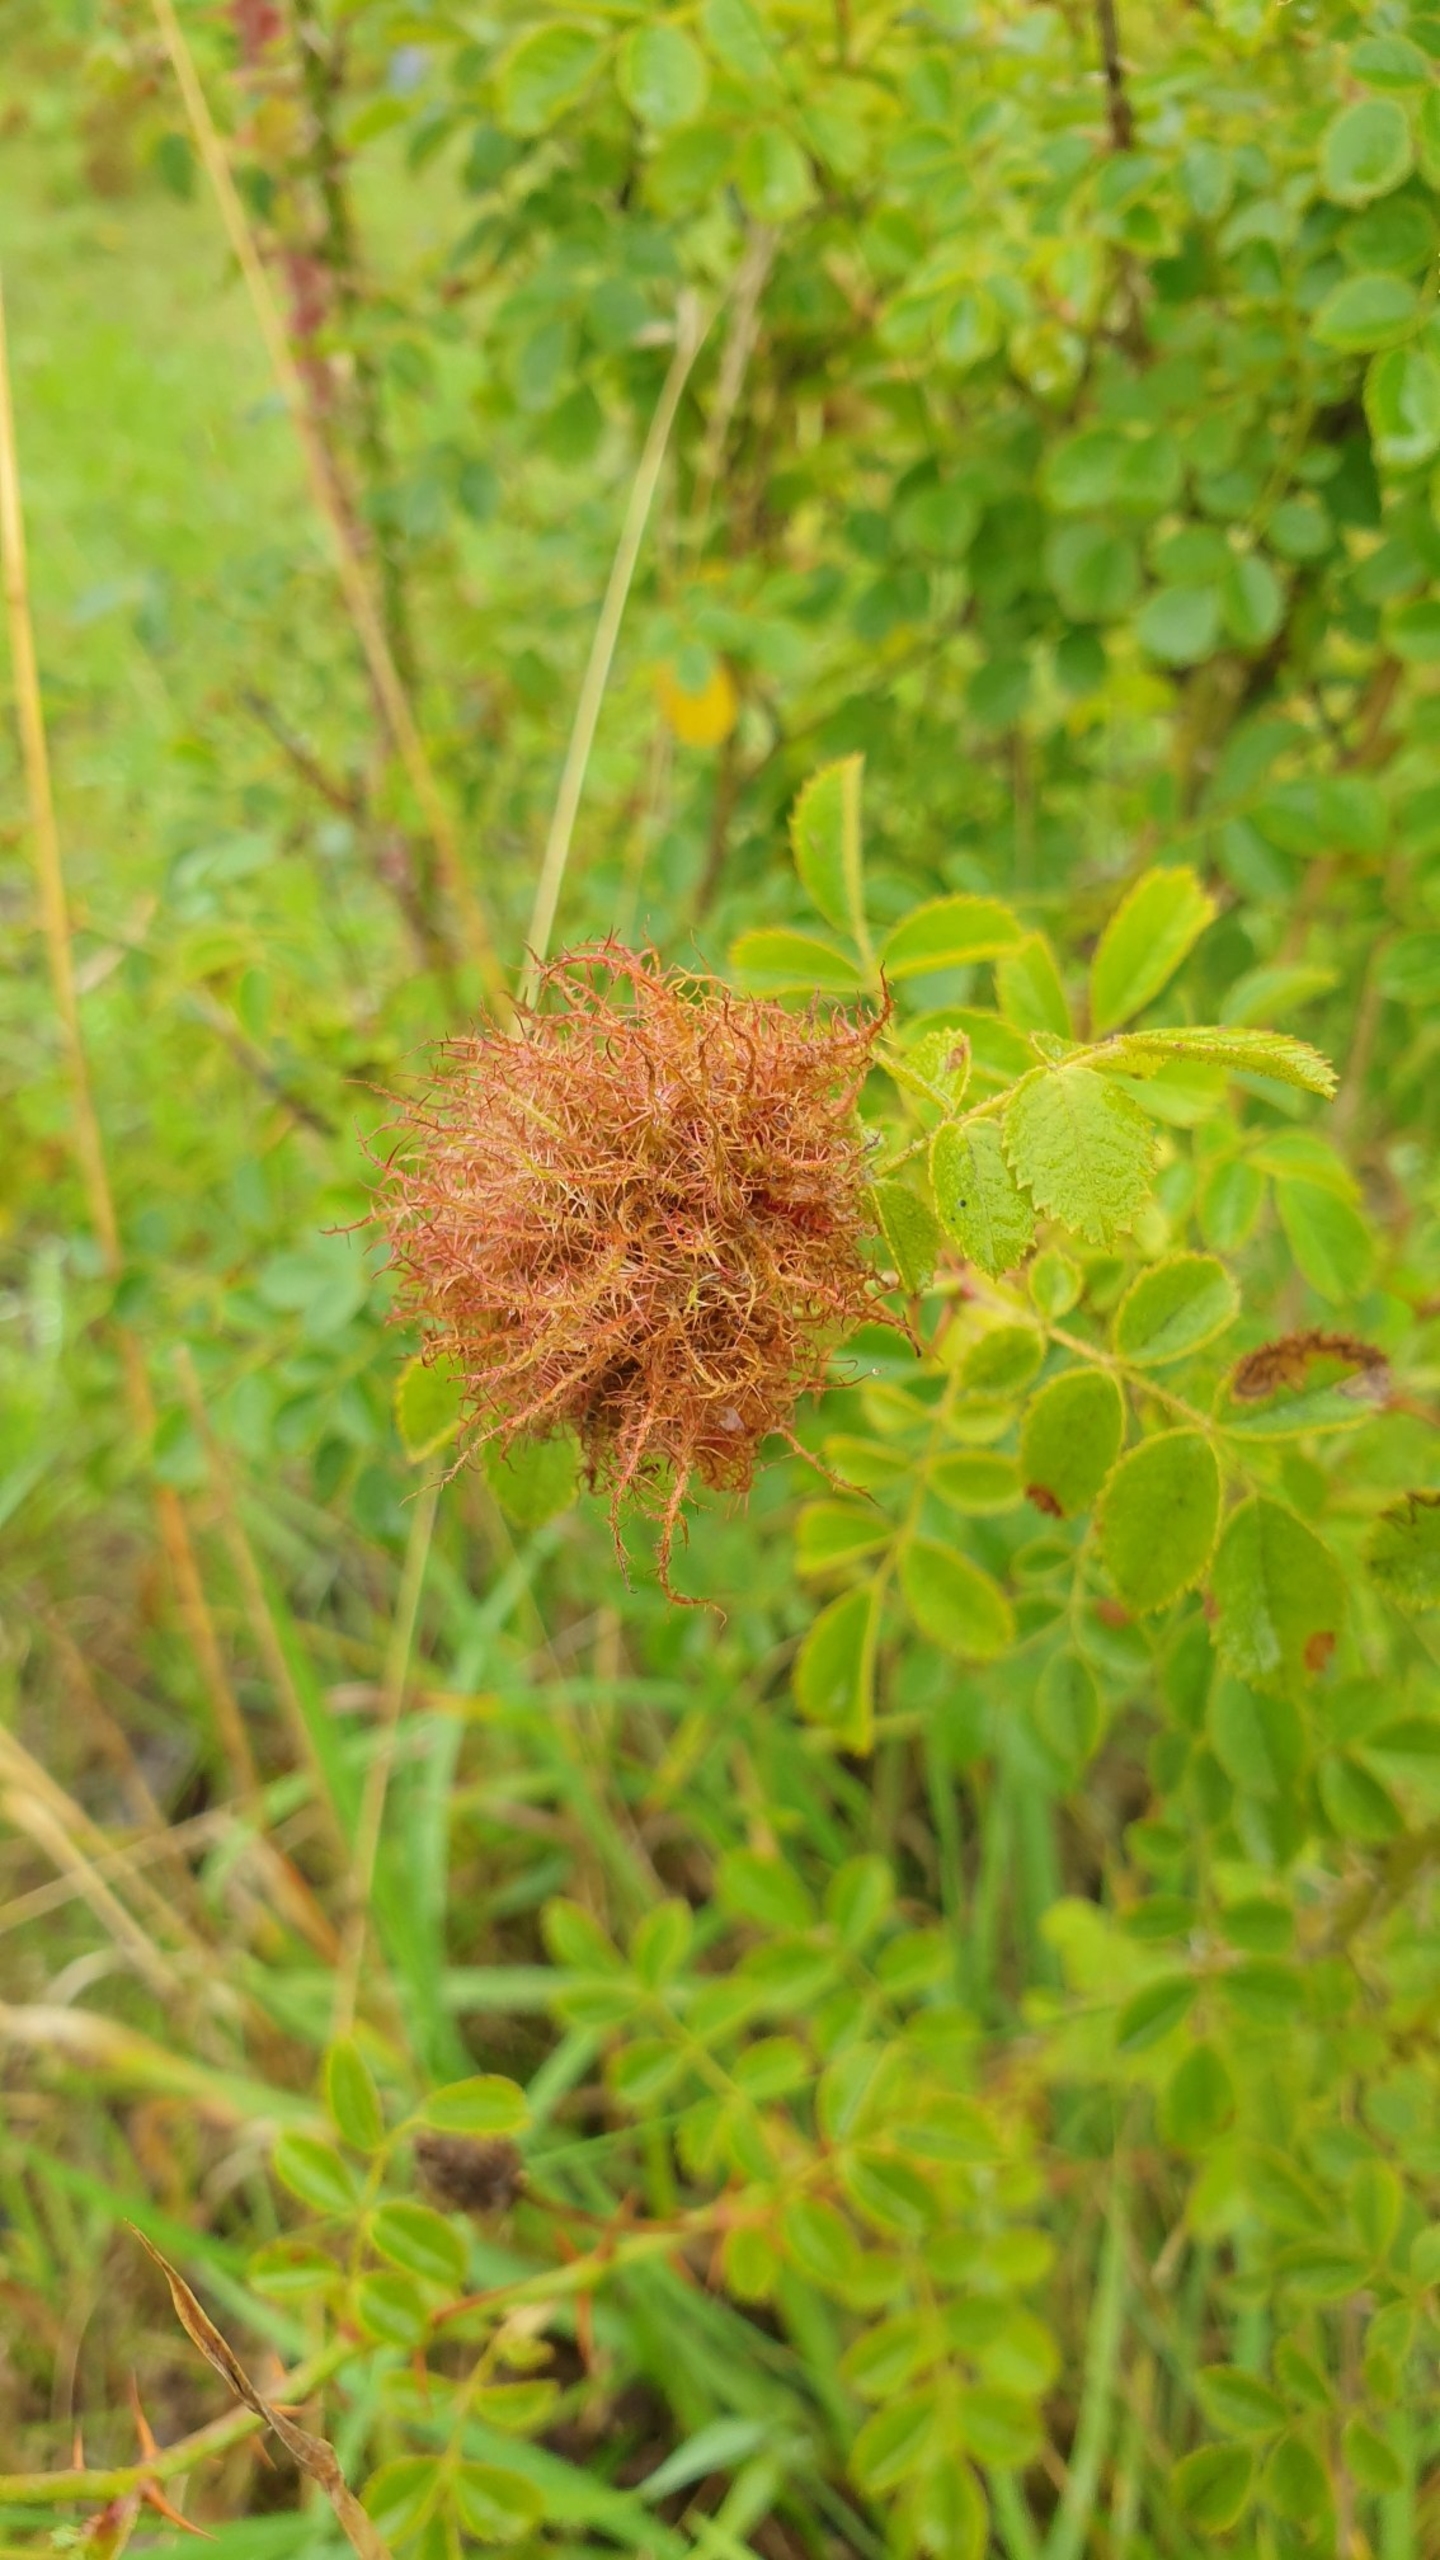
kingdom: Animalia
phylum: Arthropoda
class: Insecta
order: Hymenoptera
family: Cynipidae
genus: Diplolepis
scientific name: Diplolepis rosae
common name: Bedeguargalhveps
